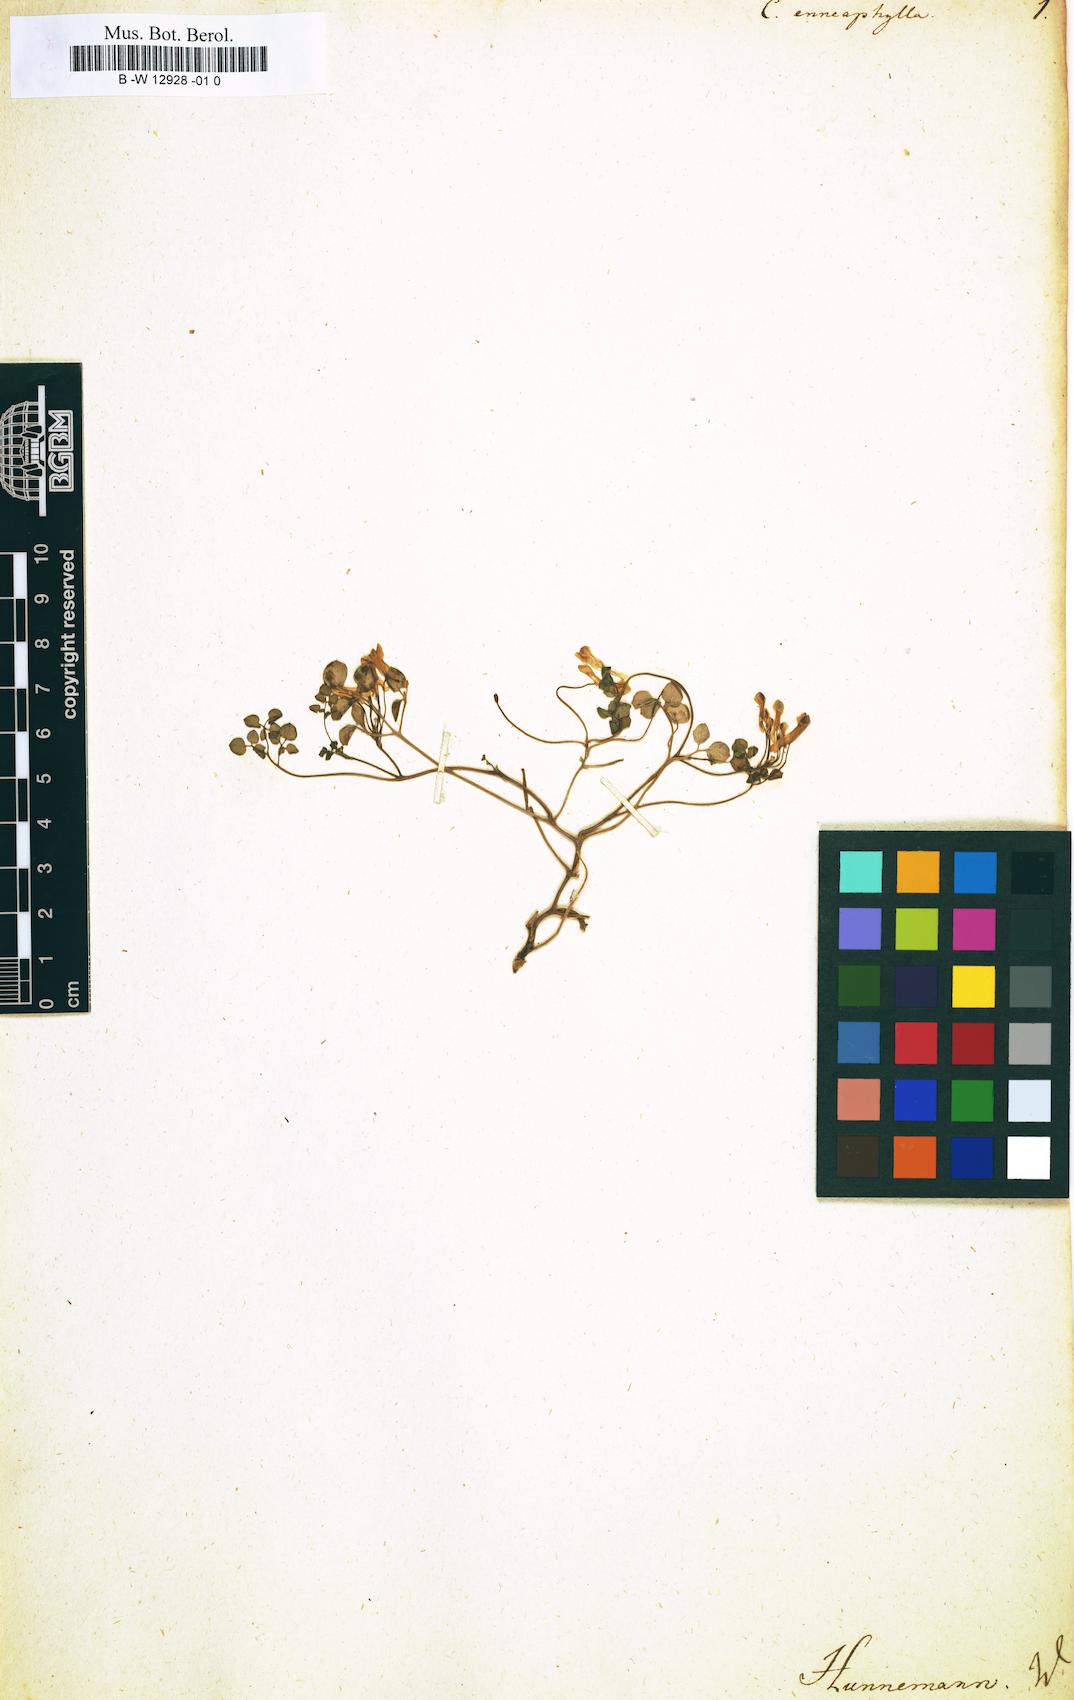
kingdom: Plantae
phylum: Tracheophyta
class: Magnoliopsida
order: Ranunculales
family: Papaveraceae
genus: Sarcocapnos
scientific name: Sarcocapnos enneaphylla
